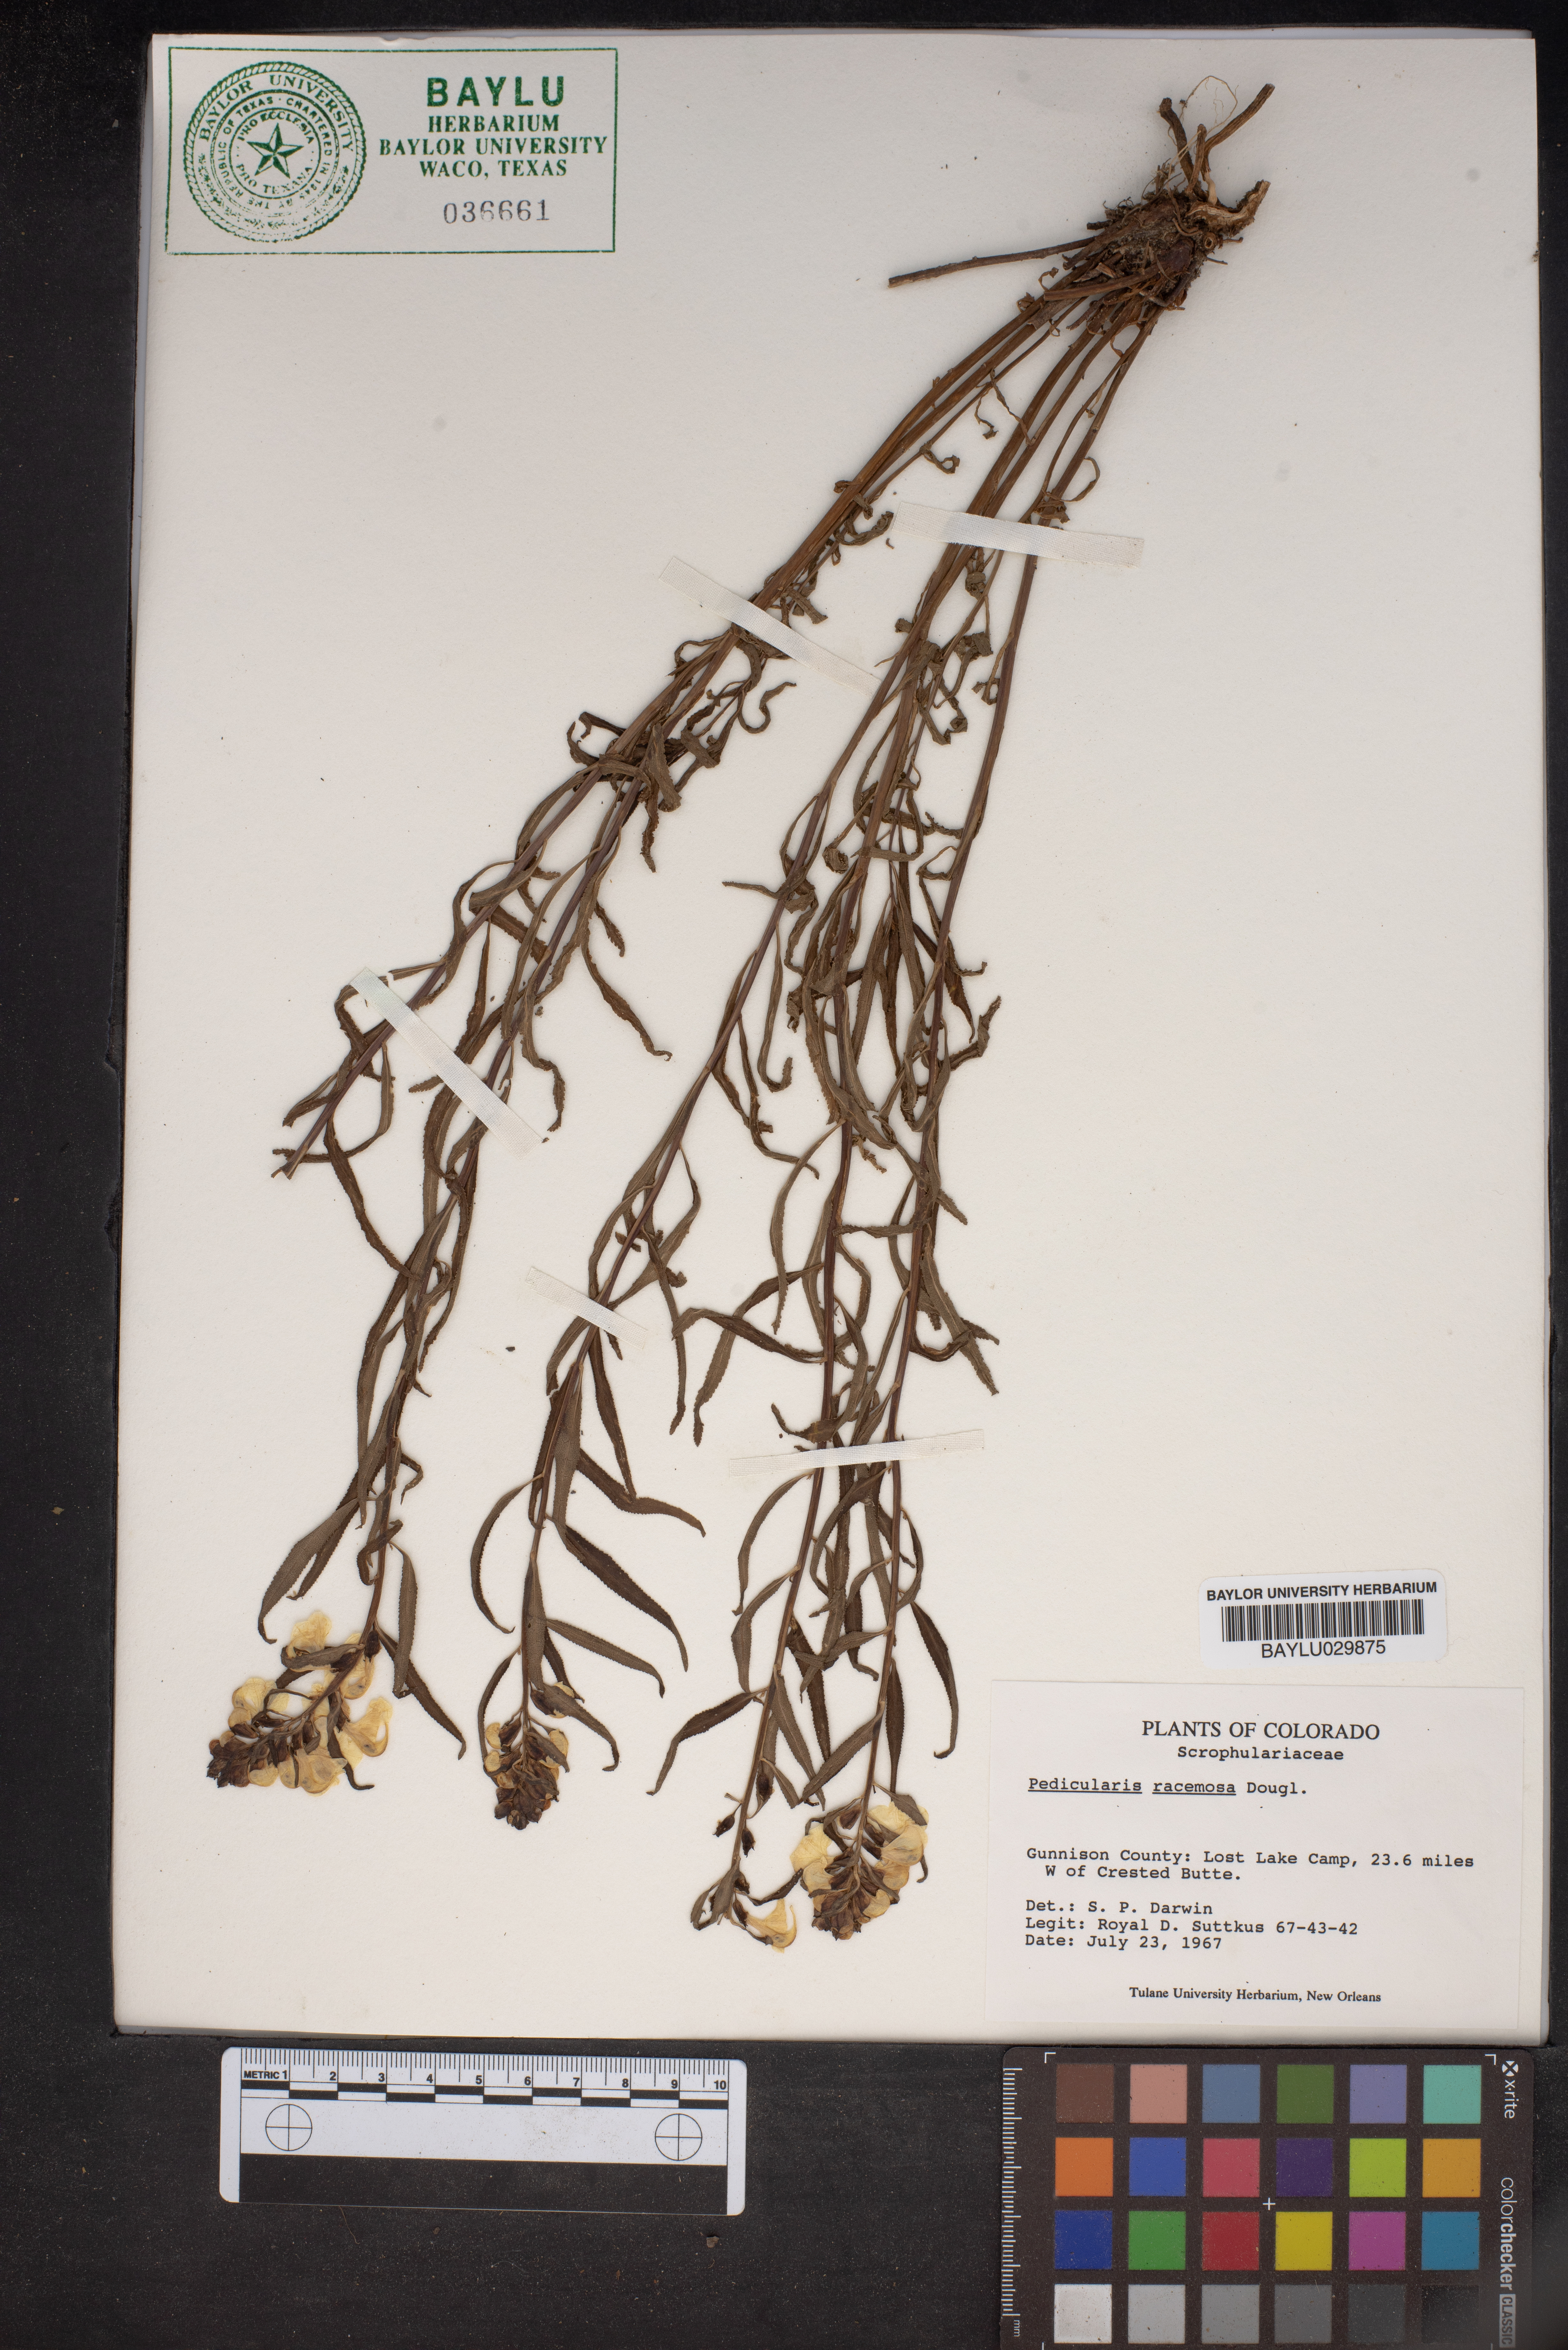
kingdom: Plantae
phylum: Tracheophyta
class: Magnoliopsida
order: Lamiales
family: Orobanchaceae
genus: Pedicularis
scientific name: Pedicularis racemosa
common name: Leafy lousewort
